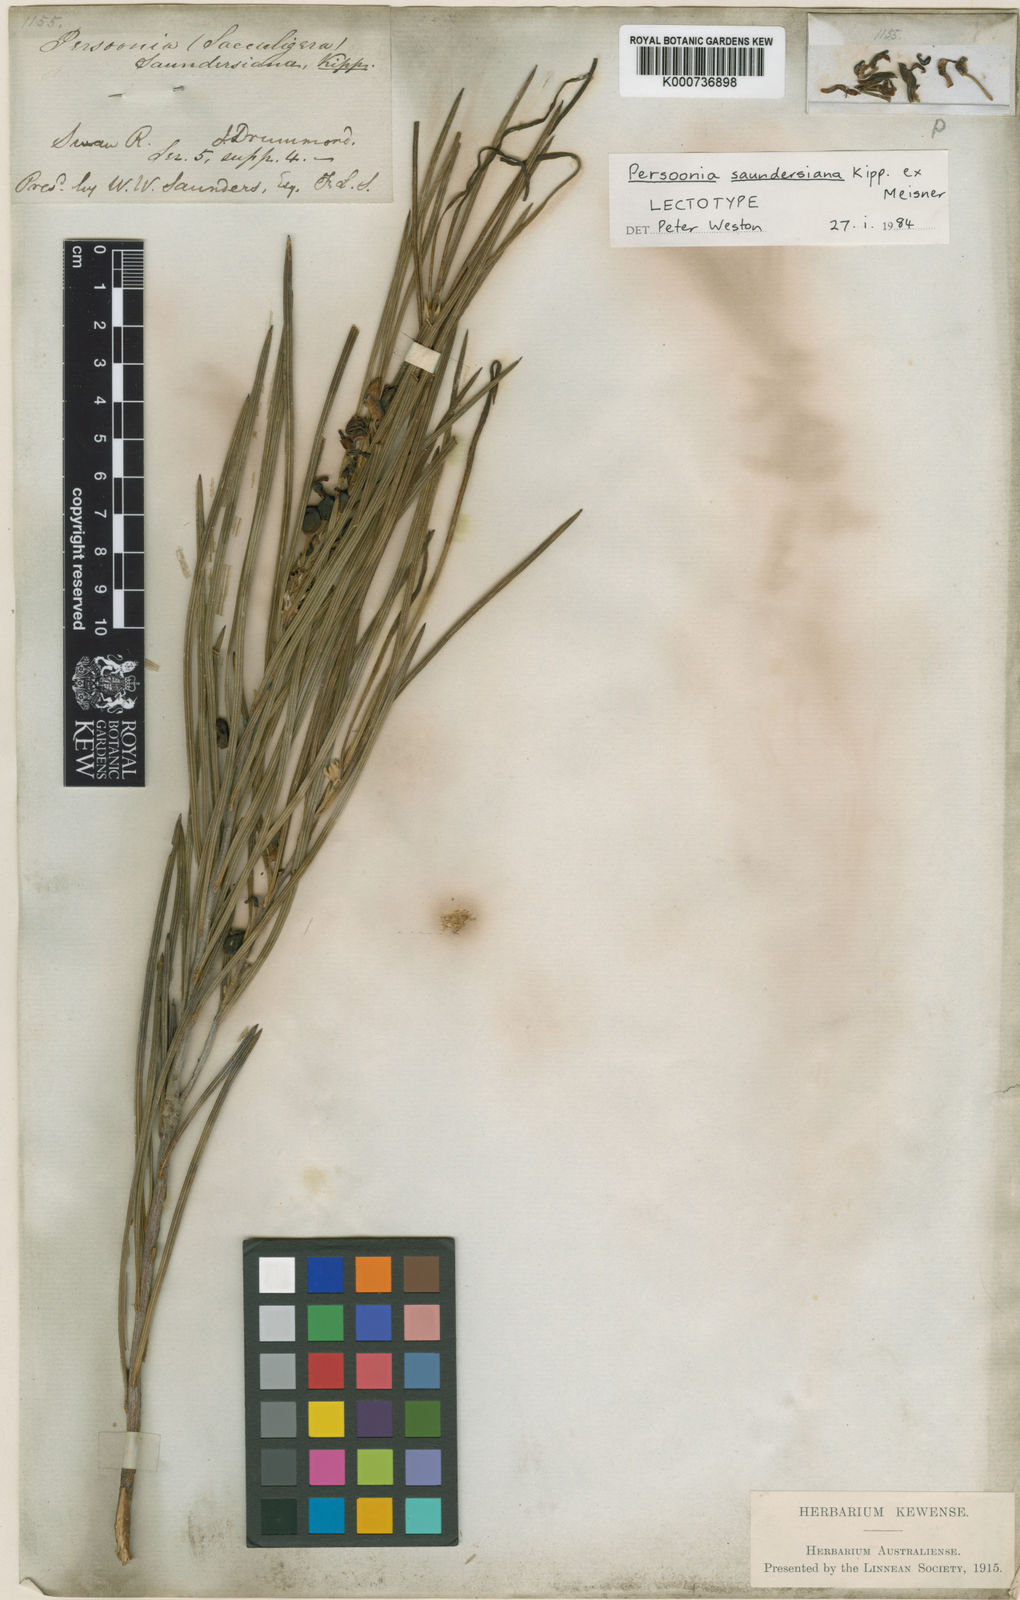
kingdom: Plantae
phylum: Tracheophyta
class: Magnoliopsida
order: Proteales
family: Proteaceae
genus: Persoonia
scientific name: Persoonia saundersiana
